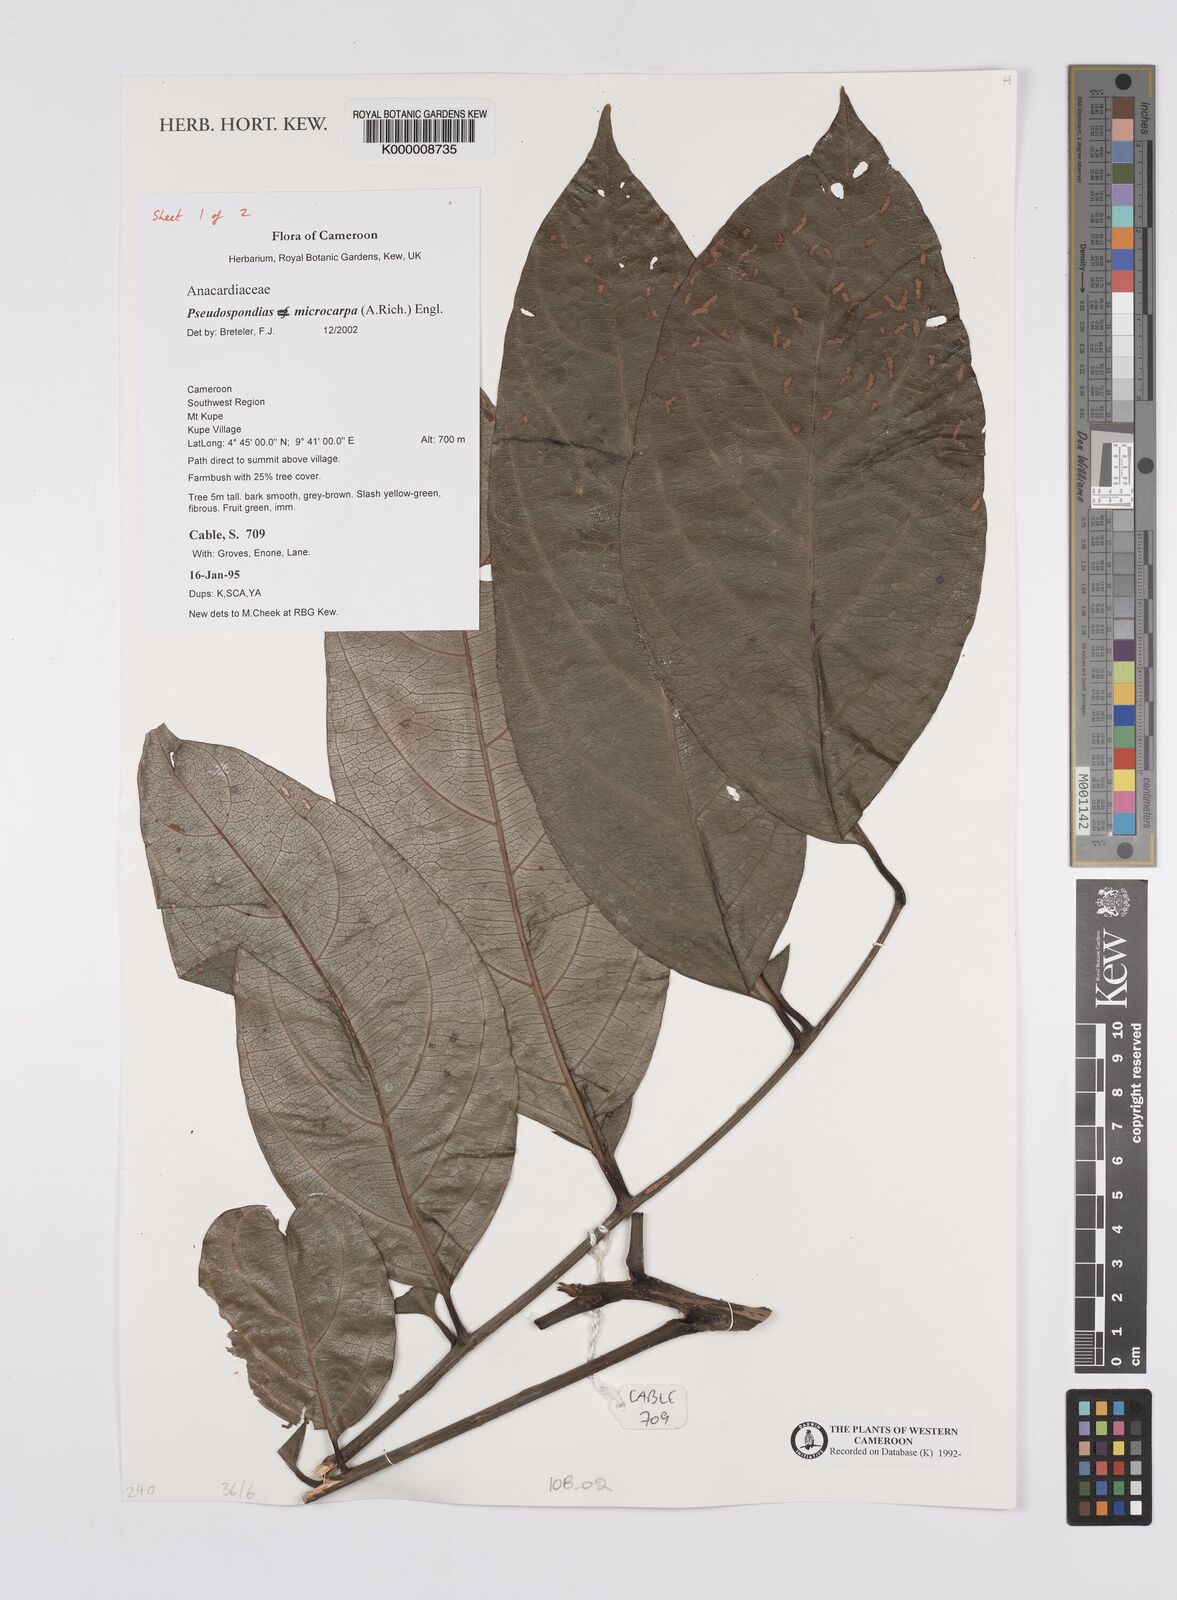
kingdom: Plantae
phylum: Tracheophyta
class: Magnoliopsida
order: Sapindales
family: Anacardiaceae
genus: Pseudospondias
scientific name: Pseudospondias microcarpa
